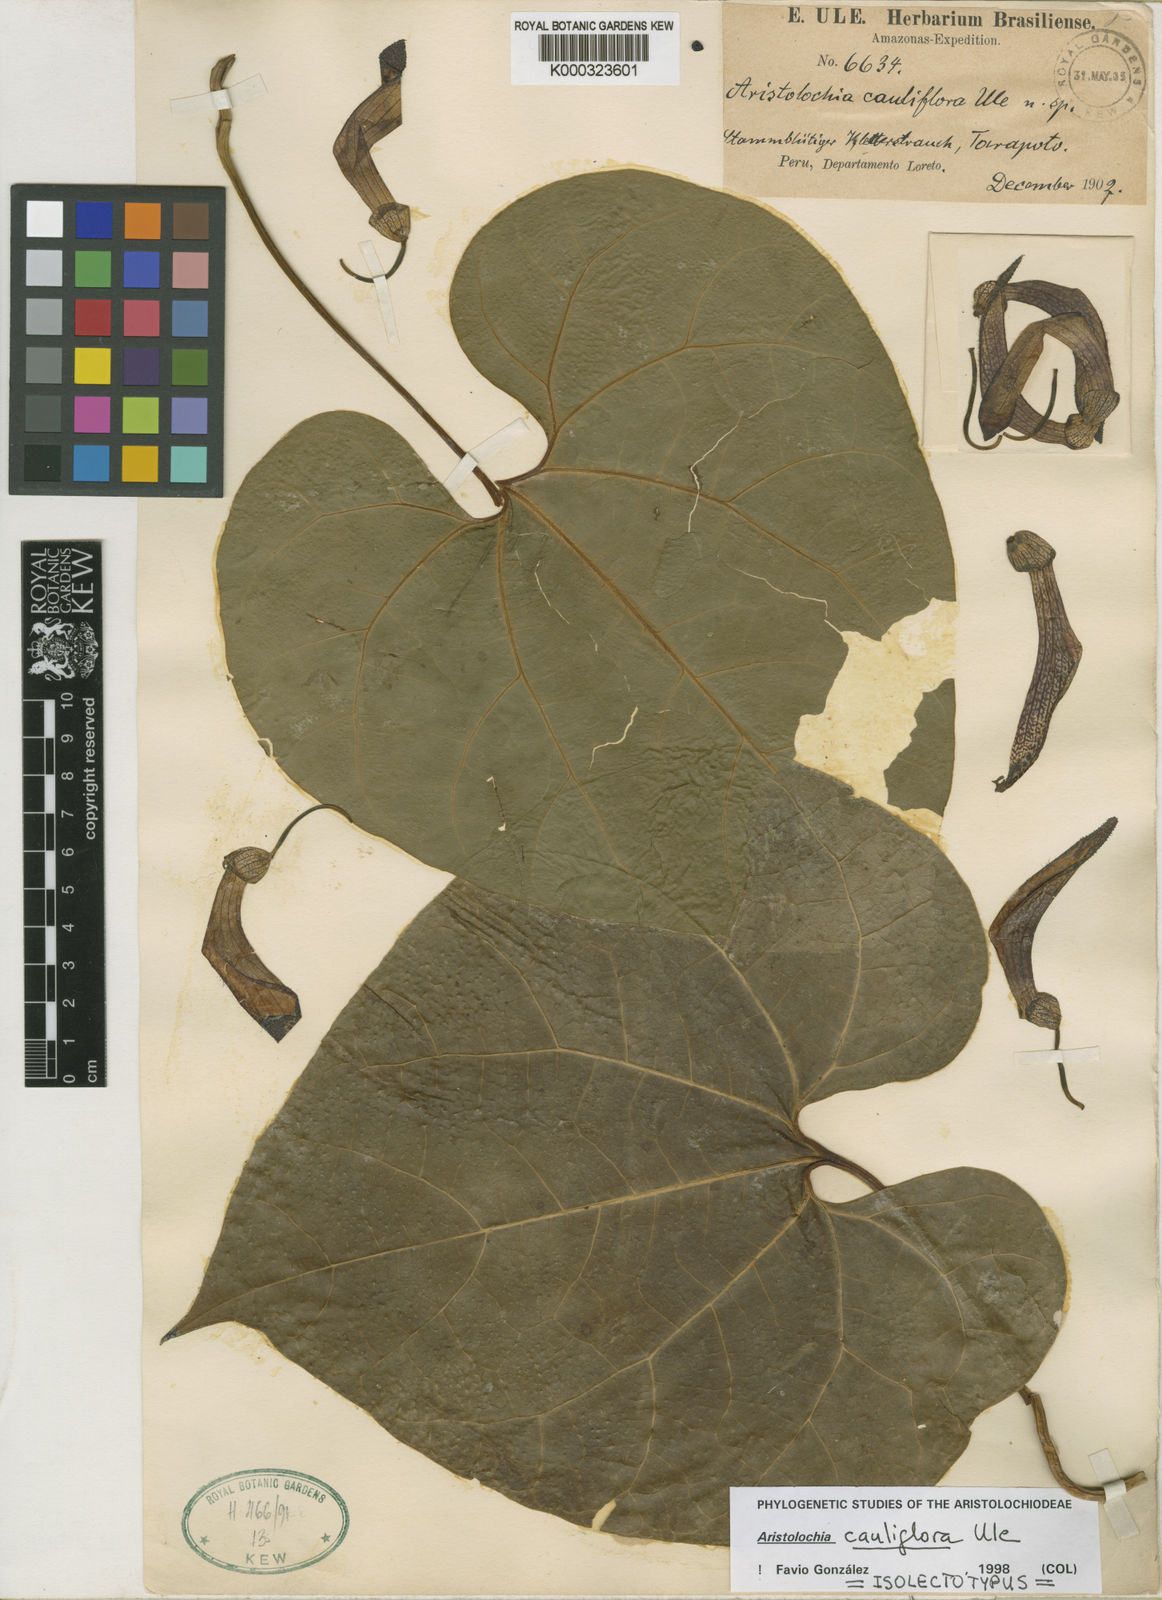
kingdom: Plantae
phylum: Tracheophyta
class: Magnoliopsida
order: Piperales
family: Aristolochiaceae
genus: Aristolochia
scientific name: Aristolochia cauliflora
